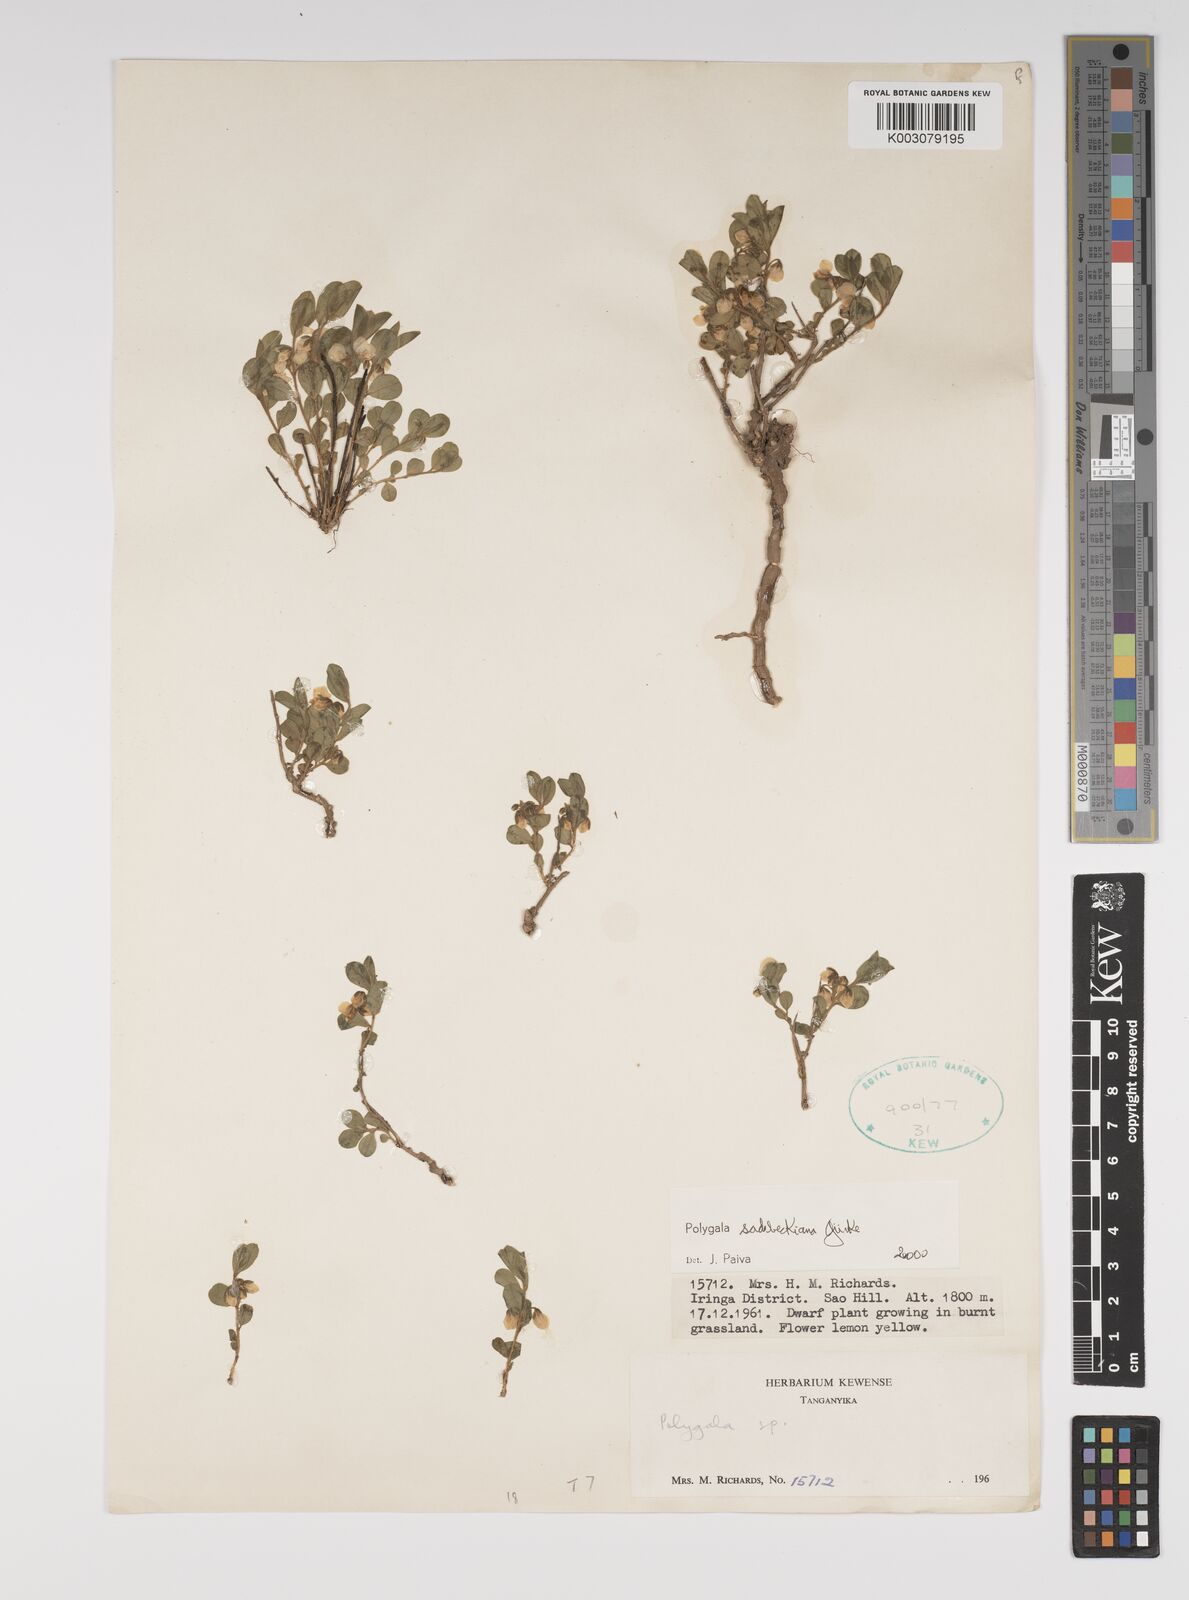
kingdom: Plantae
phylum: Tracheophyta
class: Magnoliopsida
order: Fabales
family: Polygalaceae
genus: Polygala
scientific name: Polygala sadebeckiana
